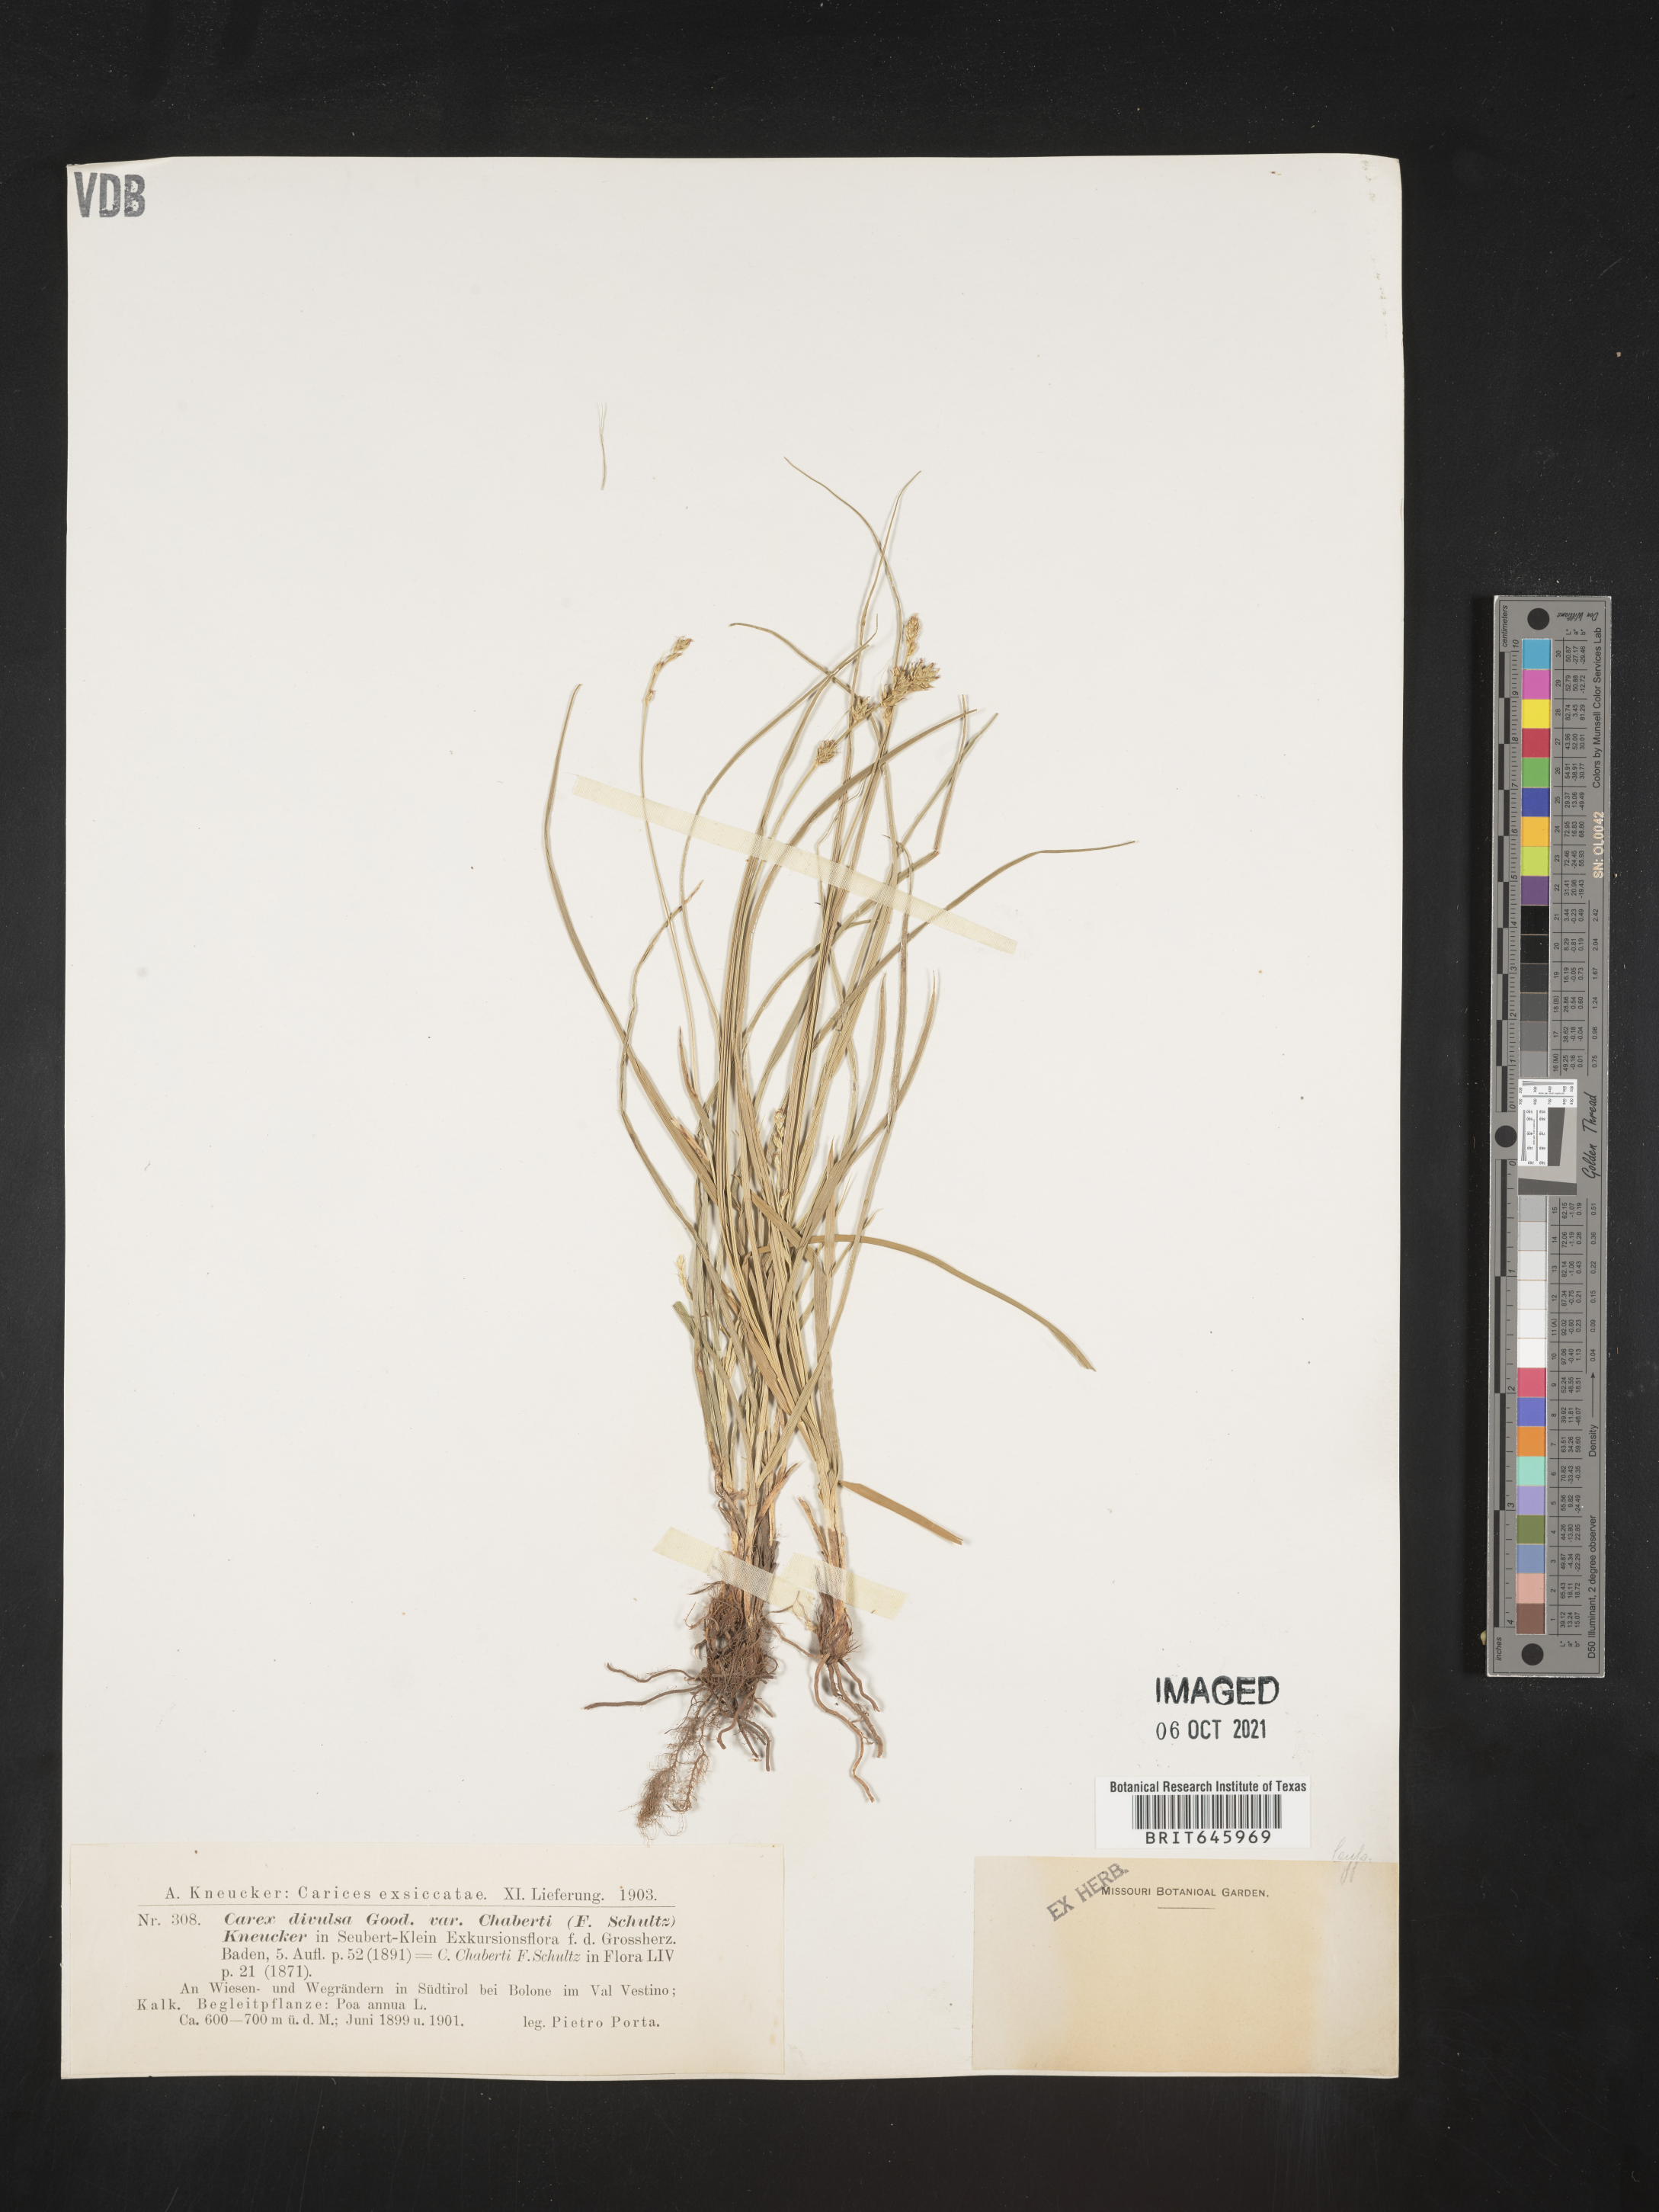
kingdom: Plantae
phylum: Tracheophyta
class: Liliopsida
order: Poales
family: Cyperaceae
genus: Carex
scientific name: Carex
